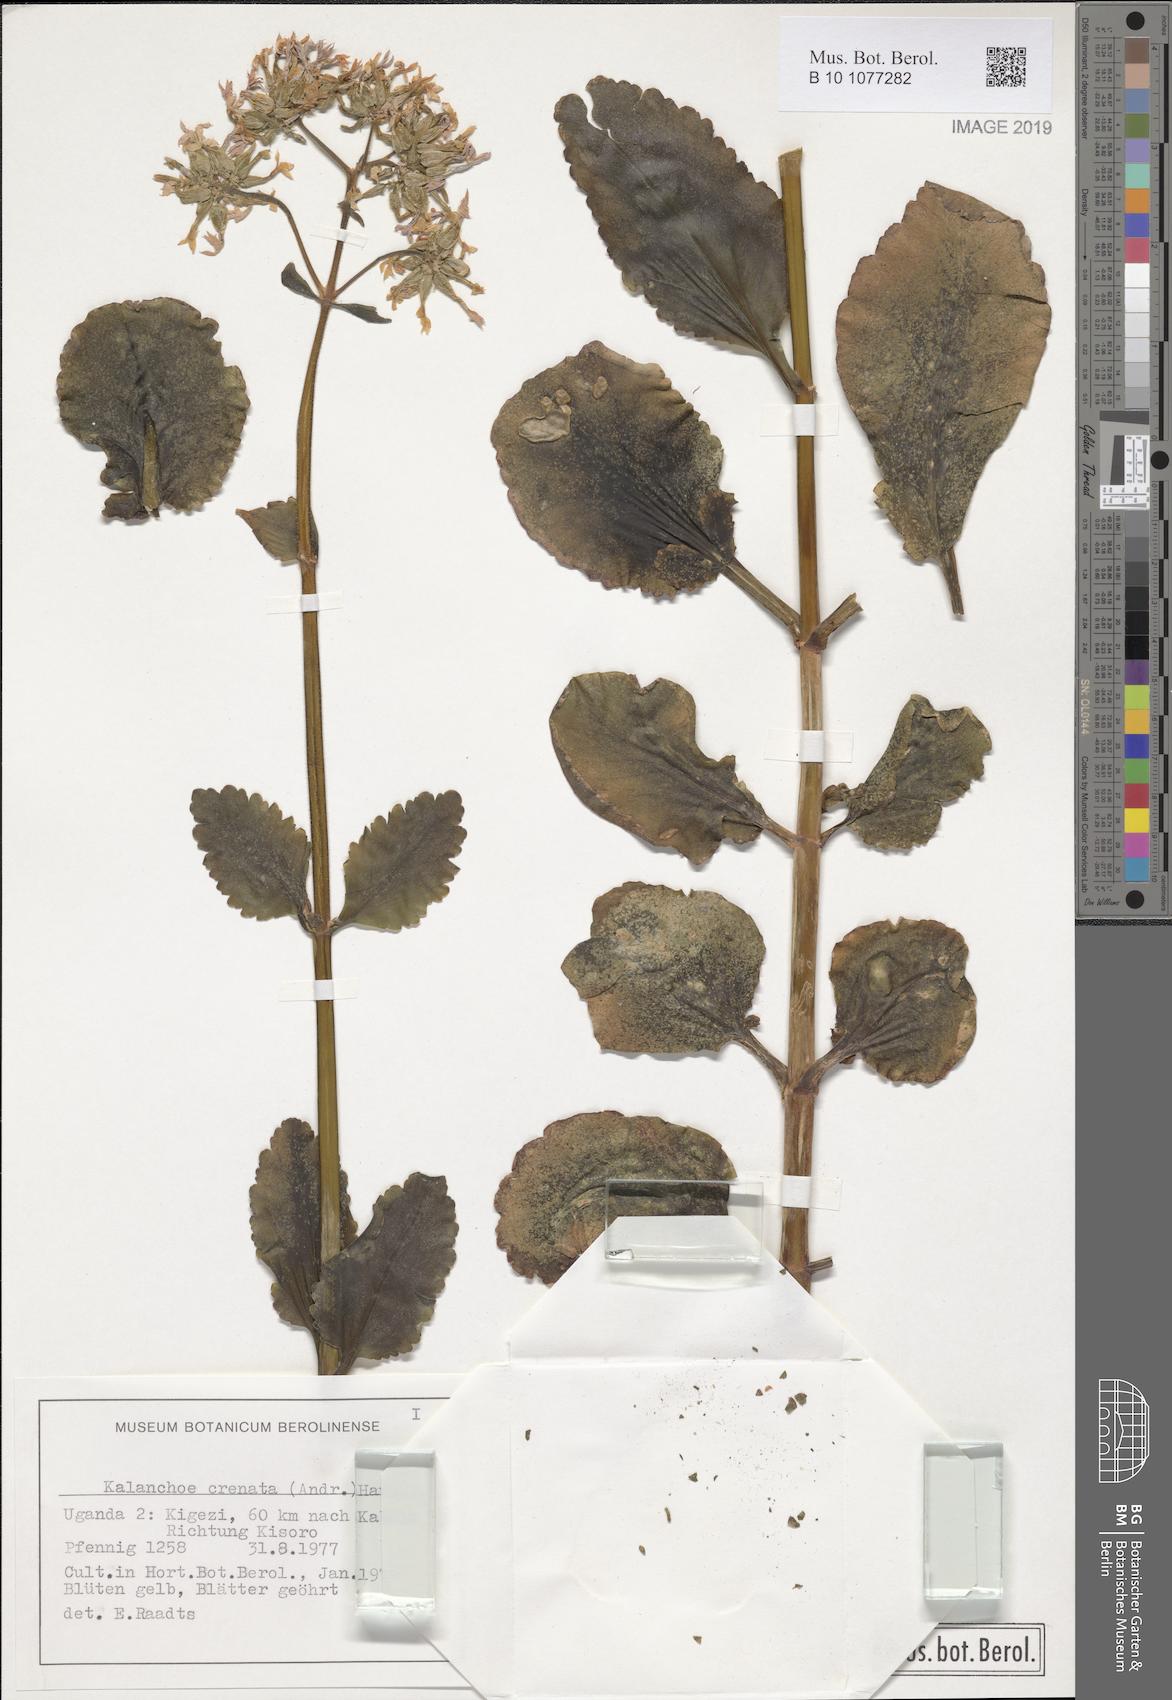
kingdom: Plantae
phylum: Tracheophyta
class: Magnoliopsida
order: Saxifragales
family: Crassulaceae
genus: Kalanchoe
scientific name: Kalanchoe crenata
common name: Neverdie
